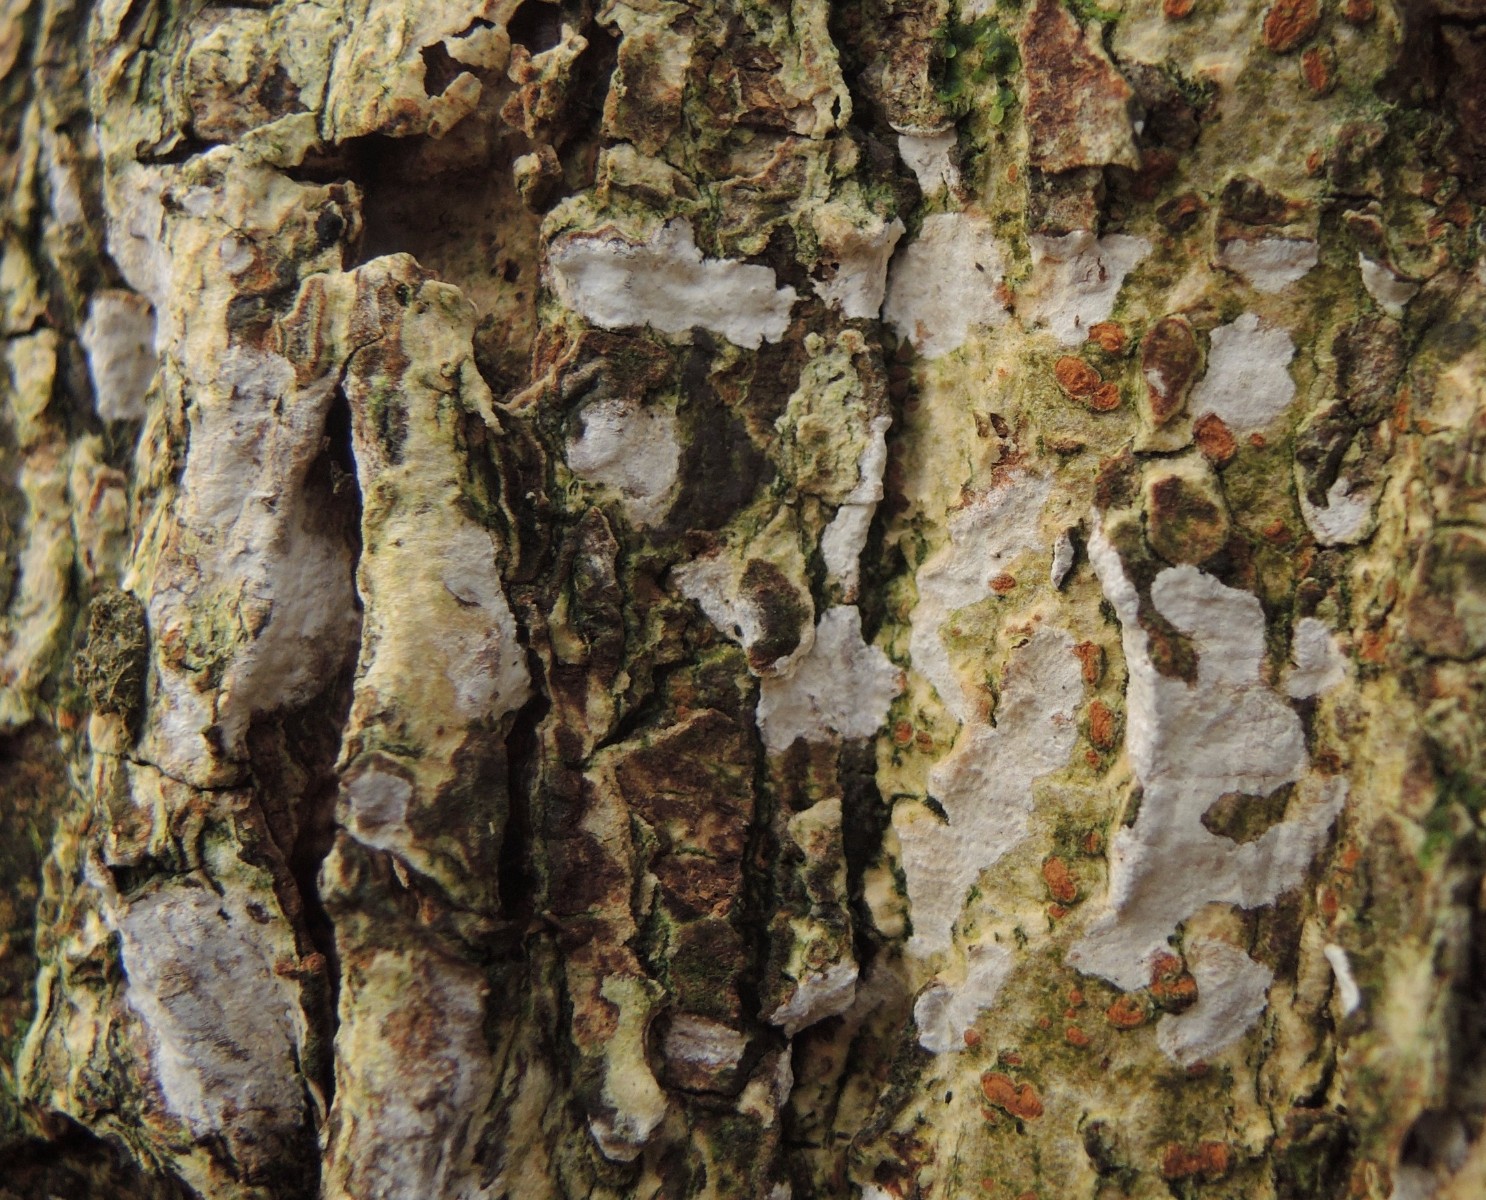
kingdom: Fungi
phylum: Basidiomycota
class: Agaricomycetes
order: Agaricales
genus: Dendrothele
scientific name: Dendrothele acerina
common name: navr-kalkplet
